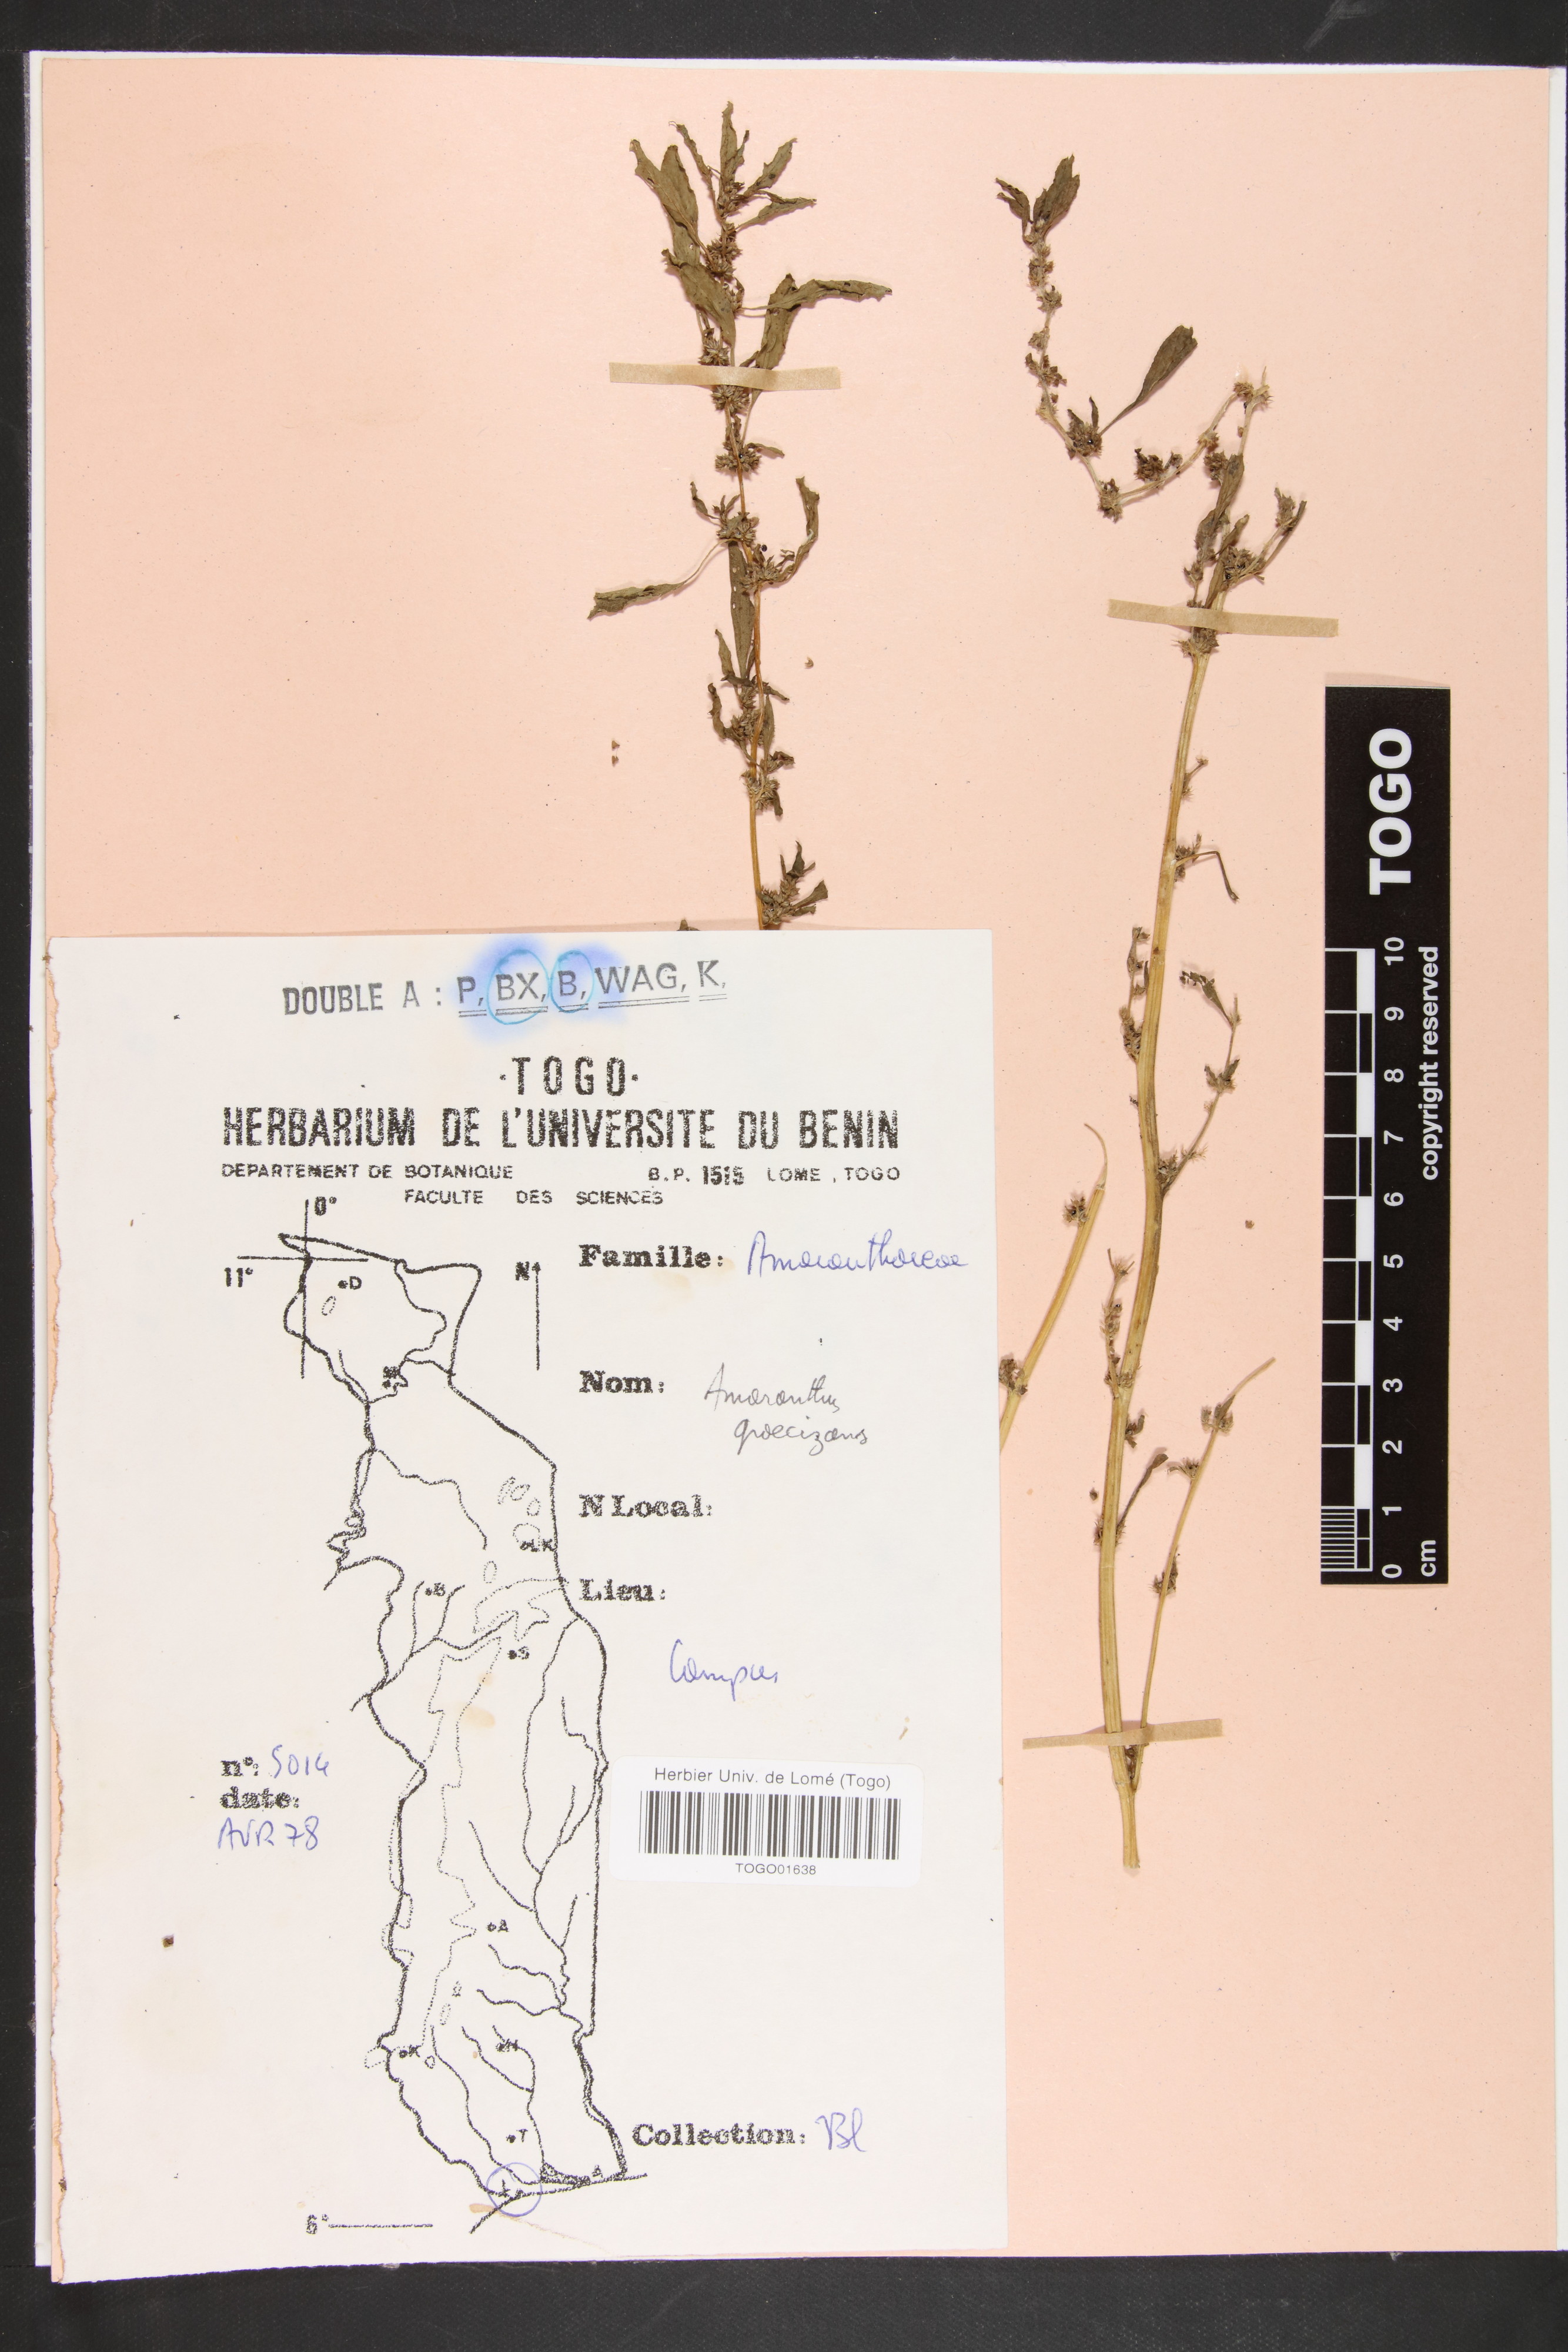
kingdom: Plantae
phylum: Tracheophyta
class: Magnoliopsida
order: Caryophyllales
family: Amaranthaceae
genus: Amaranthus
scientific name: Amaranthus graecizans
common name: Mediterranean amaranth
